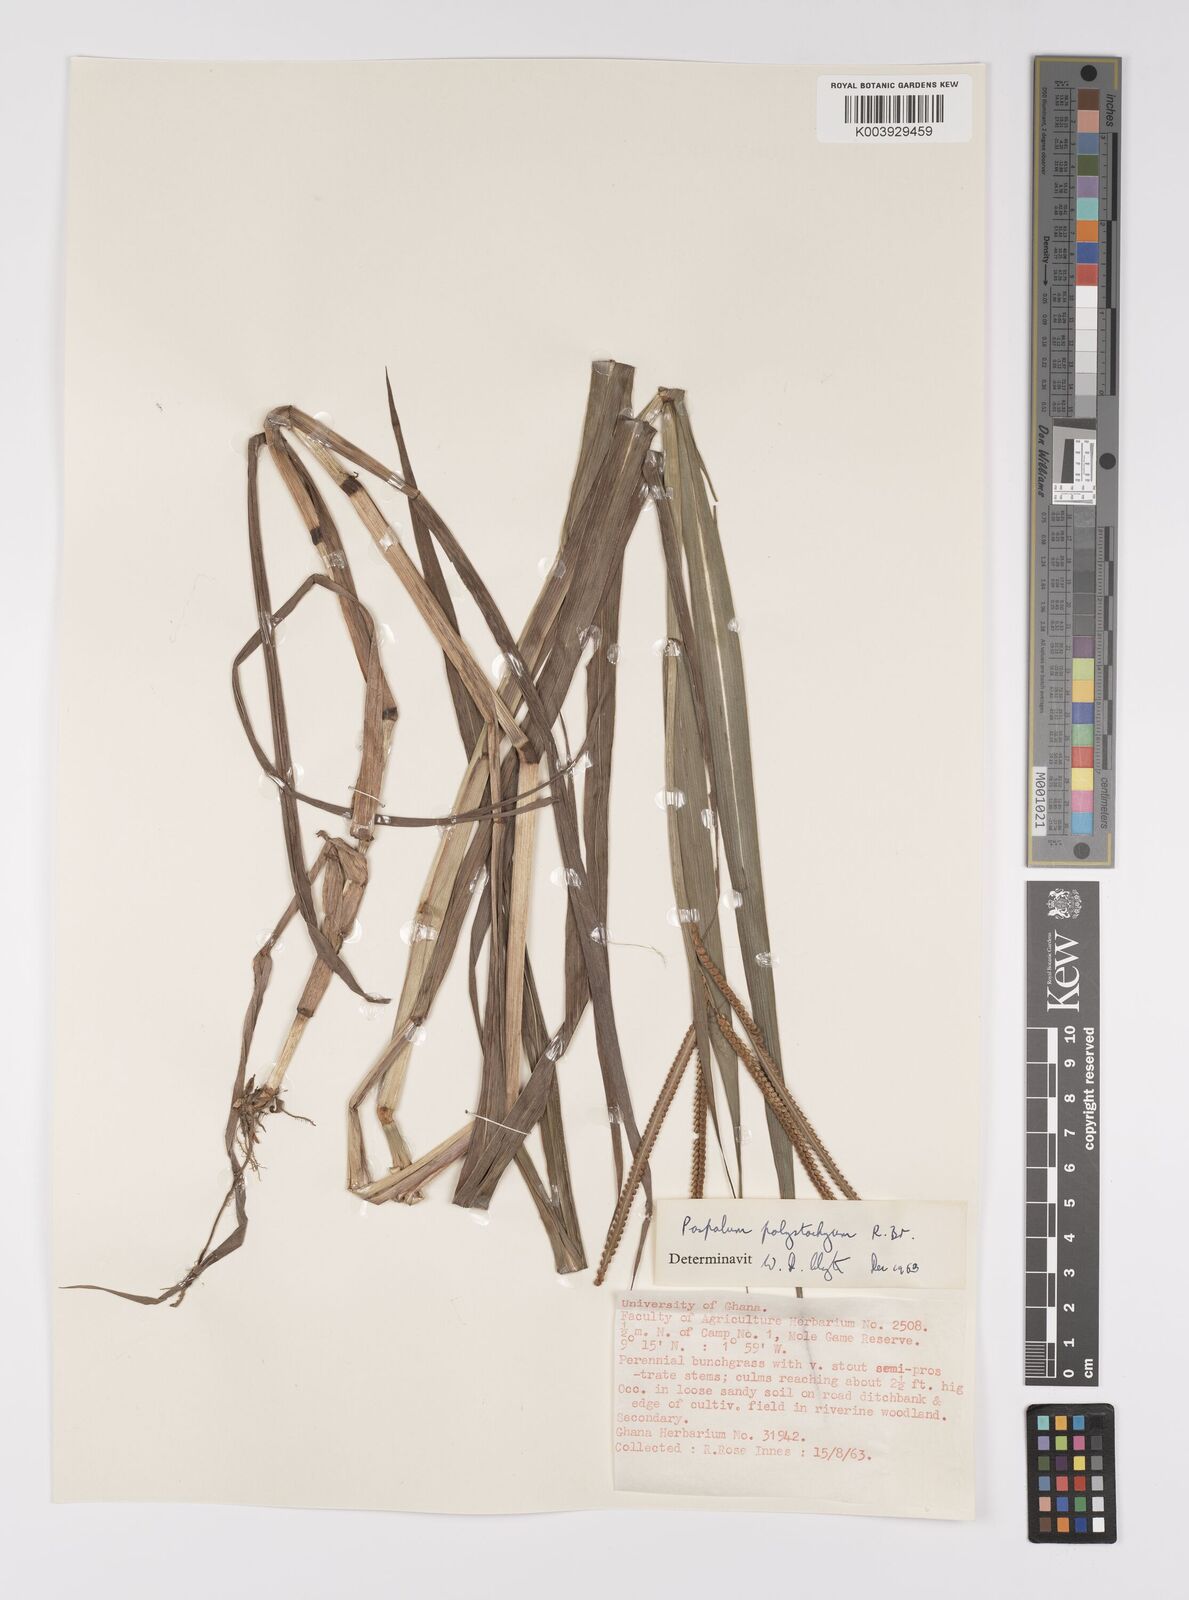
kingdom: Plantae
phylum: Tracheophyta
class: Liliopsida
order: Poales
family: Poaceae
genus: Paspalum
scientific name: Paspalum scrobiculatum
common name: Kodo millet
